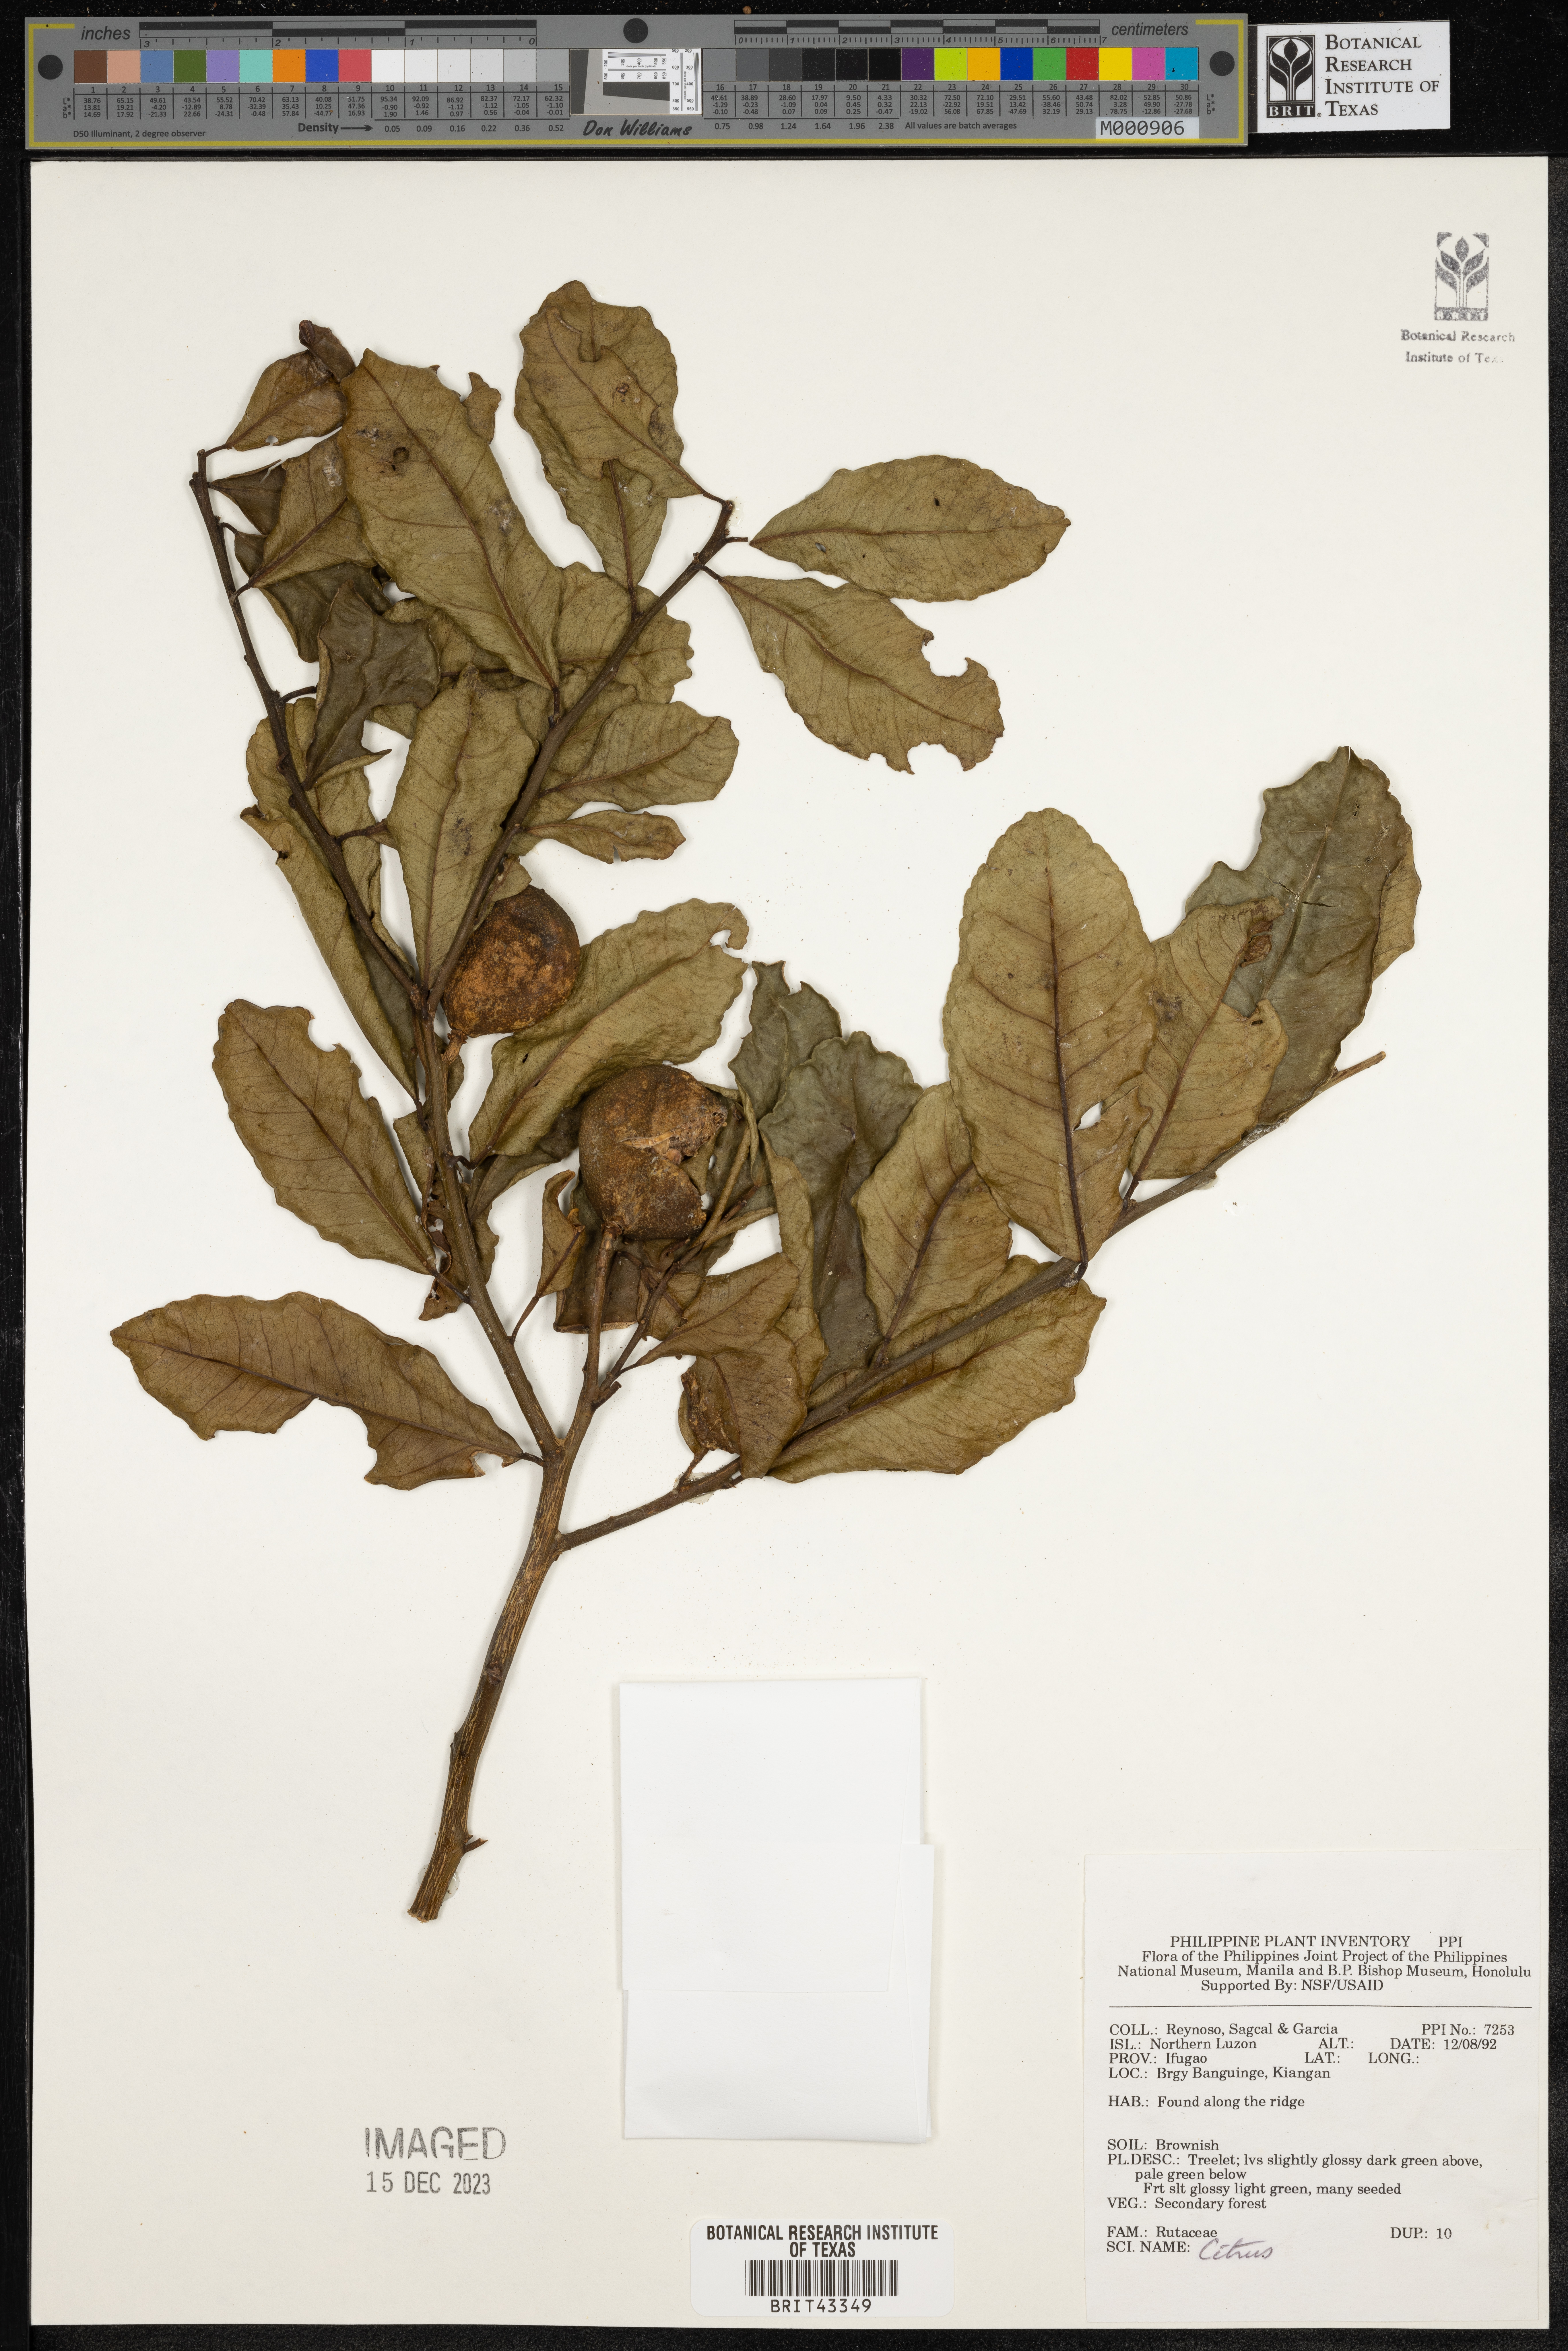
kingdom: Plantae
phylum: Tracheophyta
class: Magnoliopsida
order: Sapindales
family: Rutaceae
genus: Citrus
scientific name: Citrus
